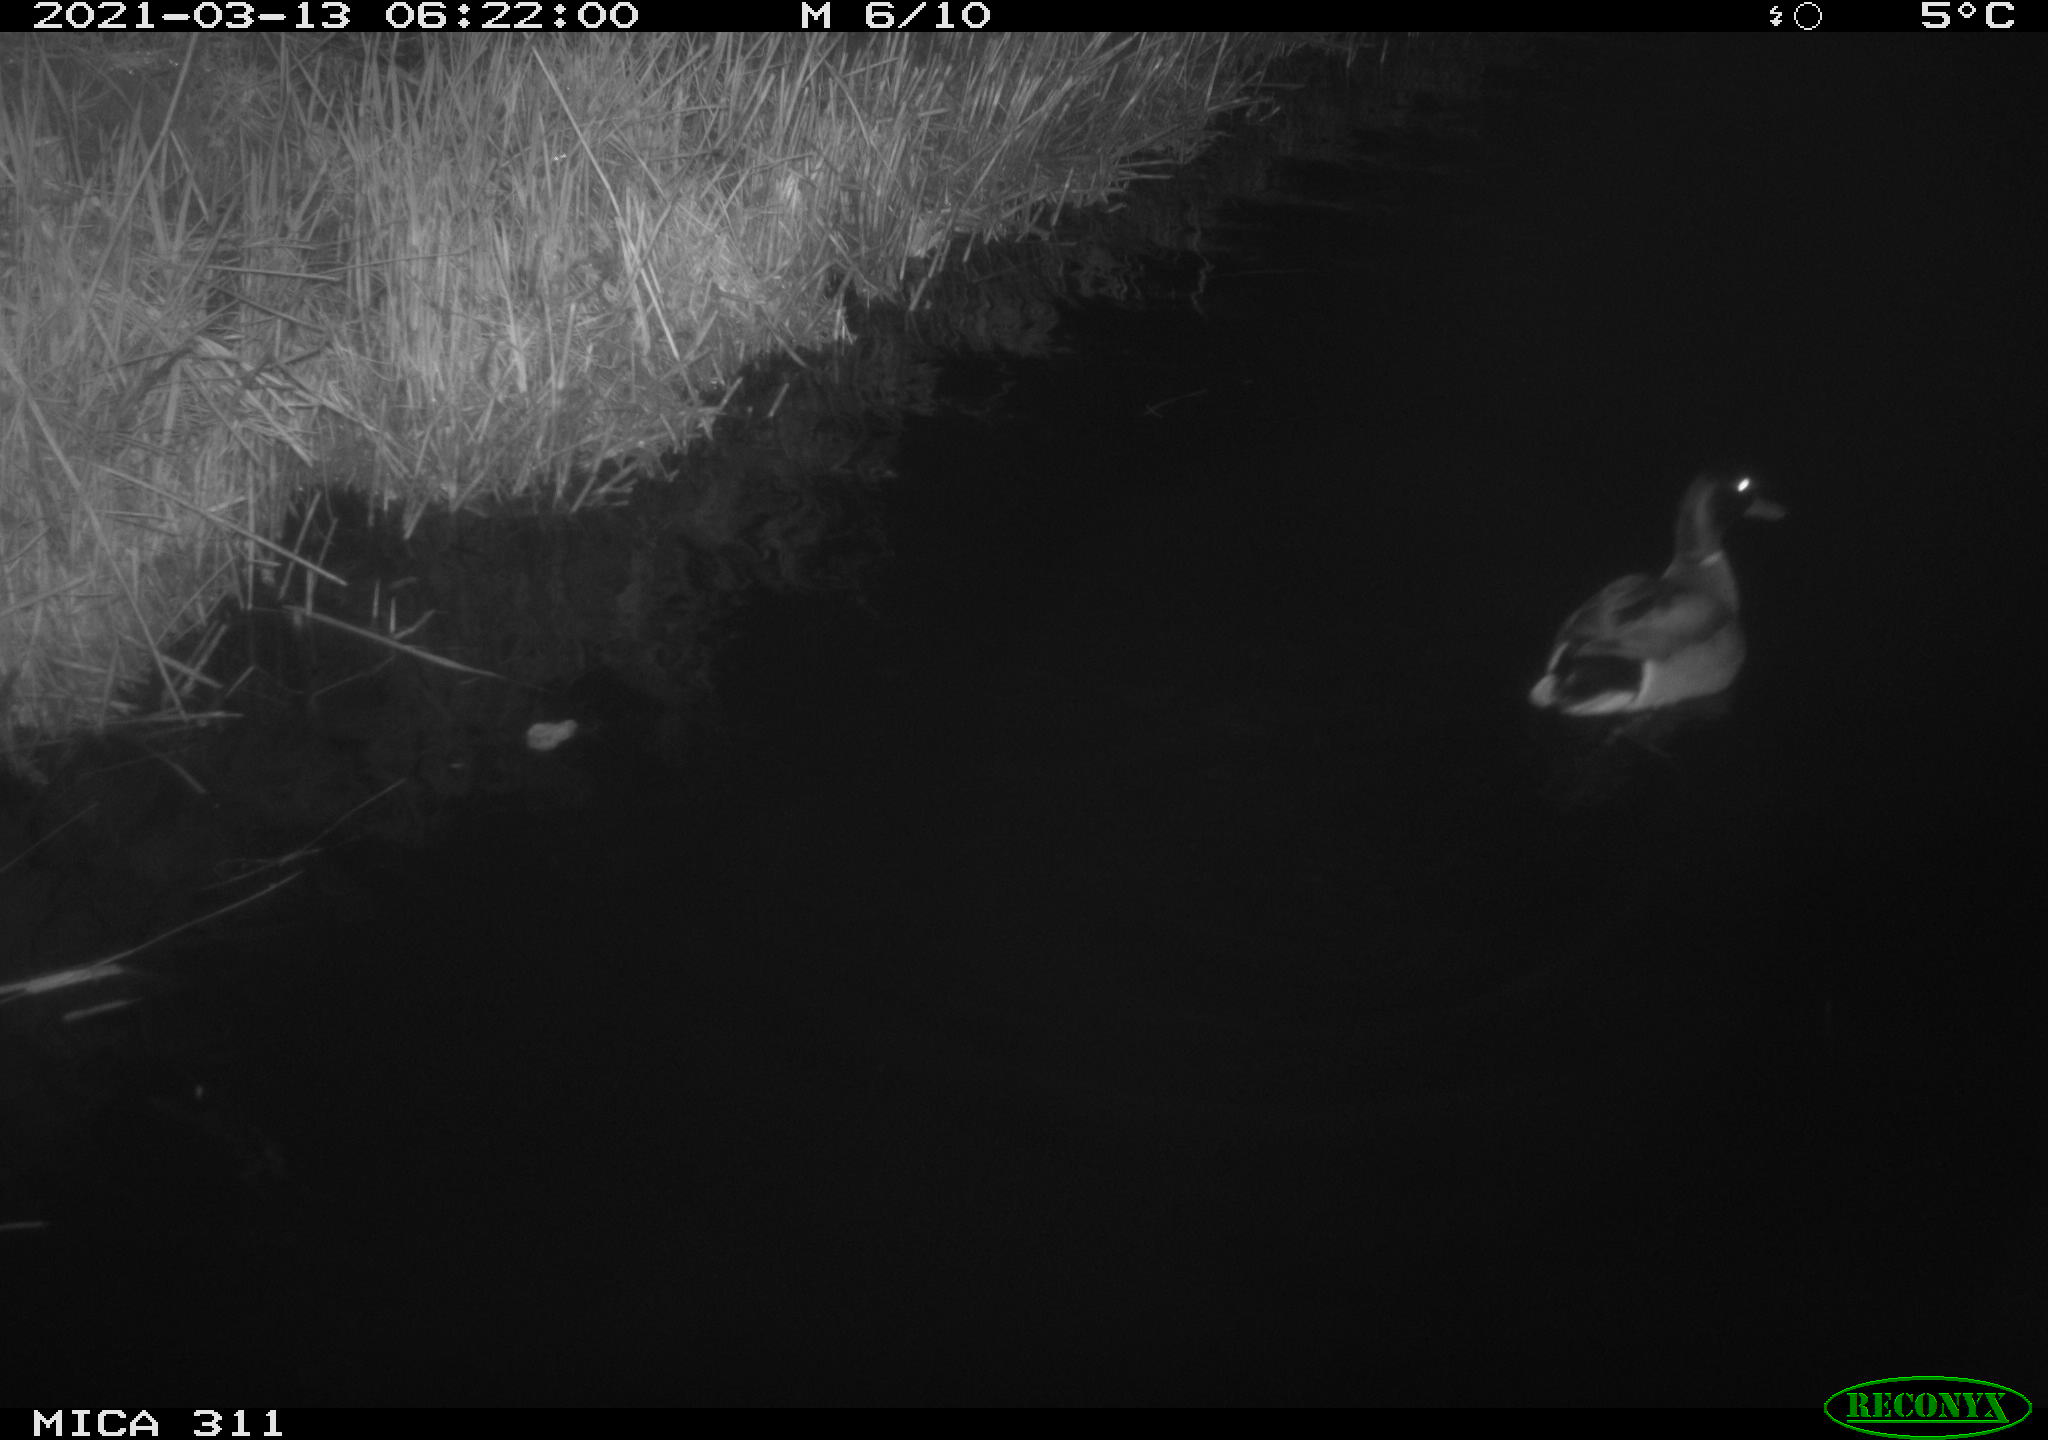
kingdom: Animalia
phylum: Chordata
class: Aves
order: Anseriformes
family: Anatidae
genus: Anas
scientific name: Anas
